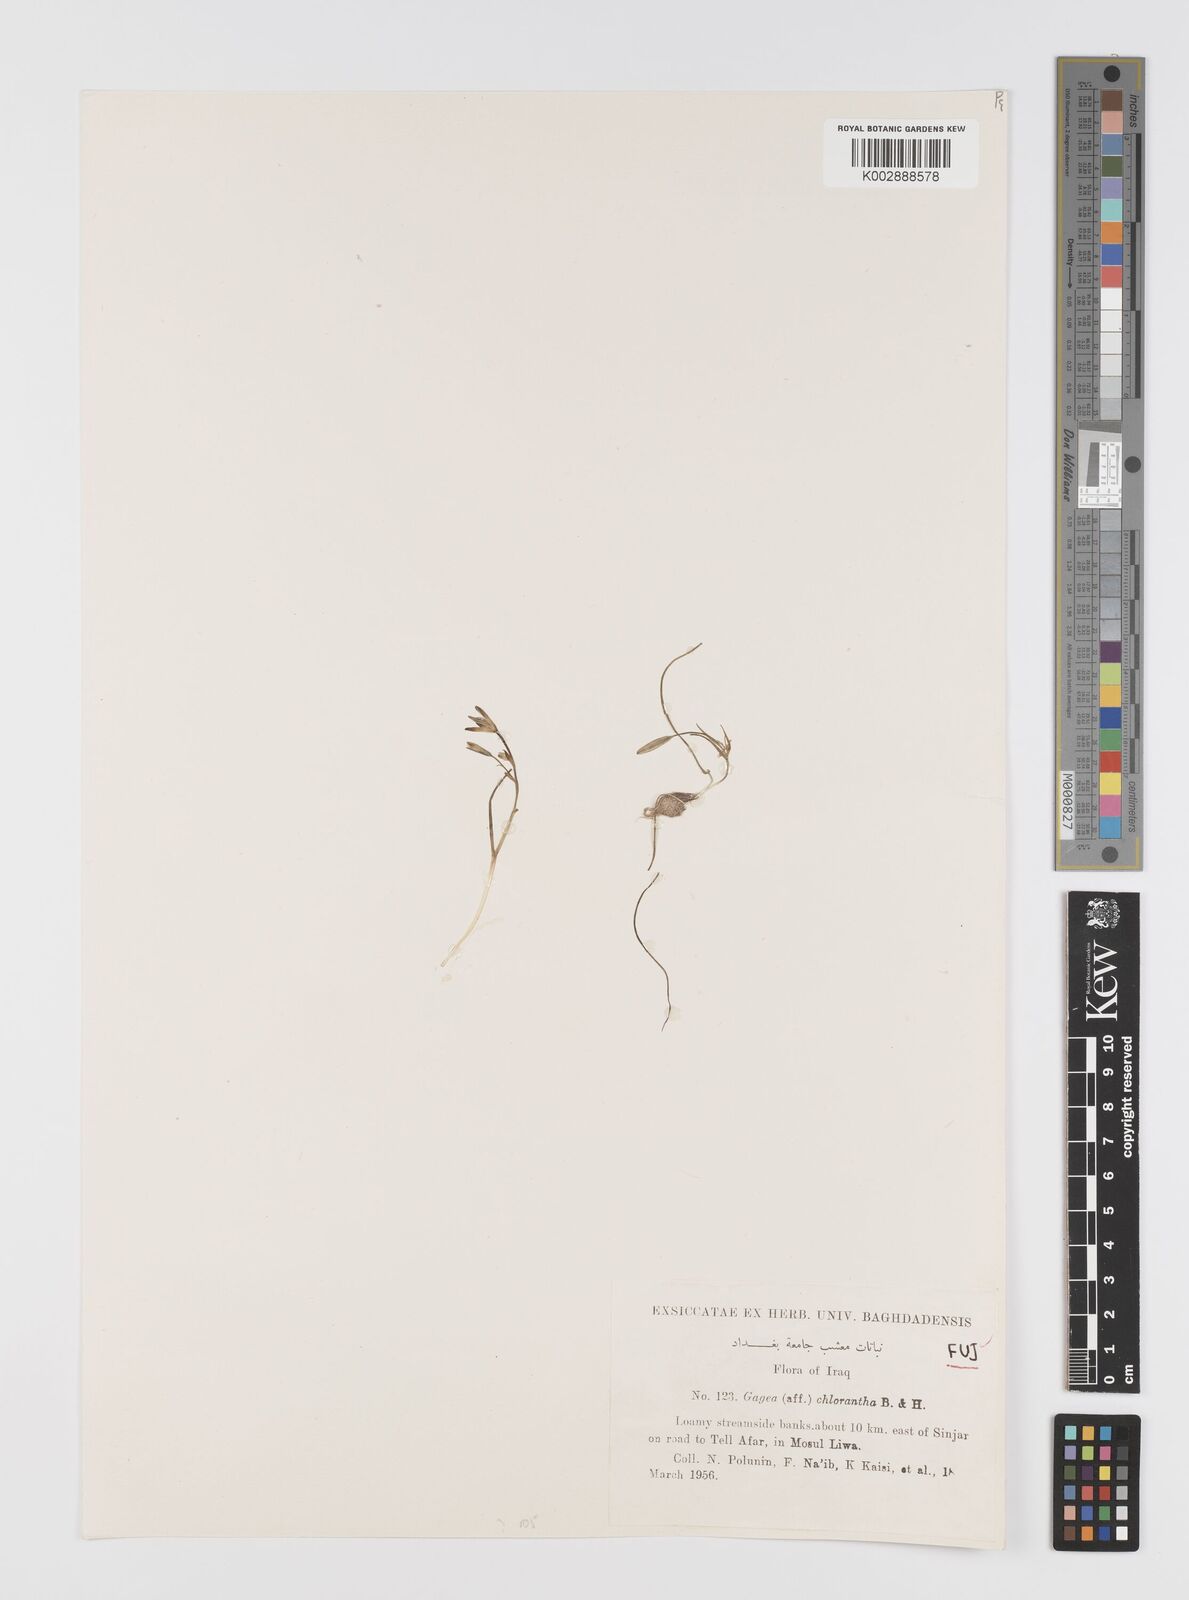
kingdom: Plantae
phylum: Tracheophyta
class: Liliopsida
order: Liliales
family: Liliaceae
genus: Gagea
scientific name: Gagea chlorantha
